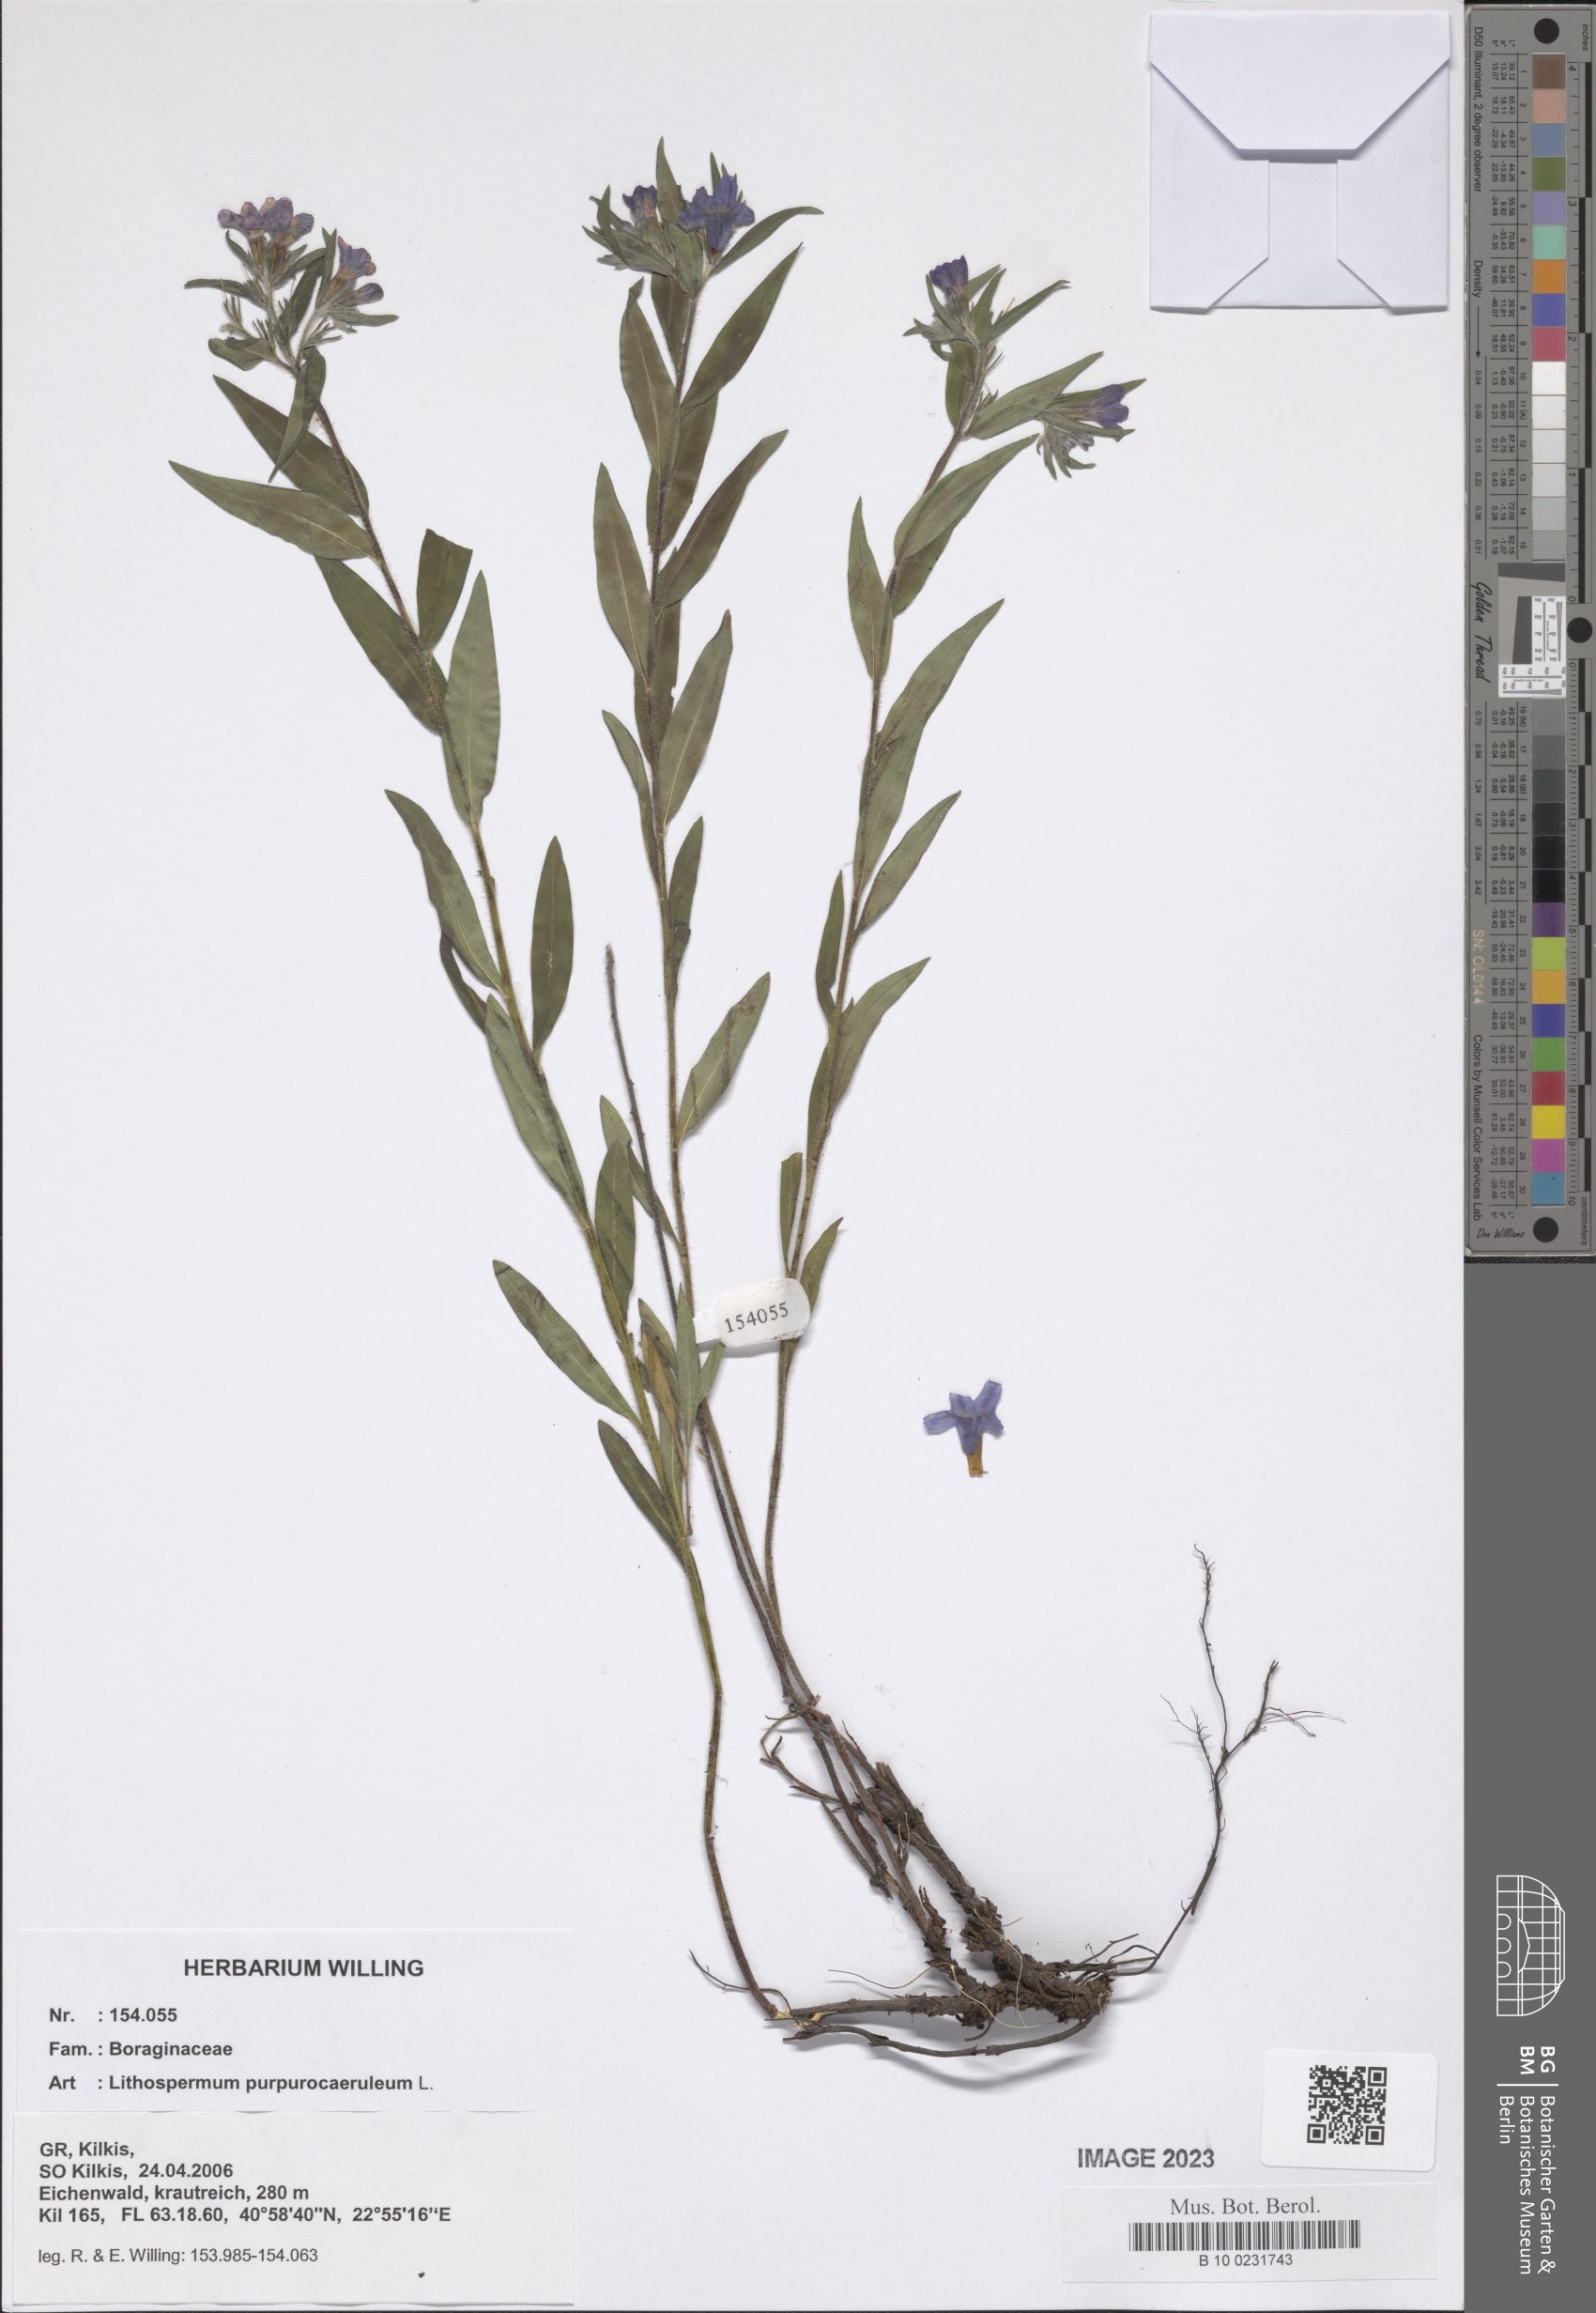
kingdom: Plantae
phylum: Tracheophyta
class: Magnoliopsida
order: Boraginales
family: Boraginaceae
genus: Aegonychon
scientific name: Aegonychon purpurocaeruleum
